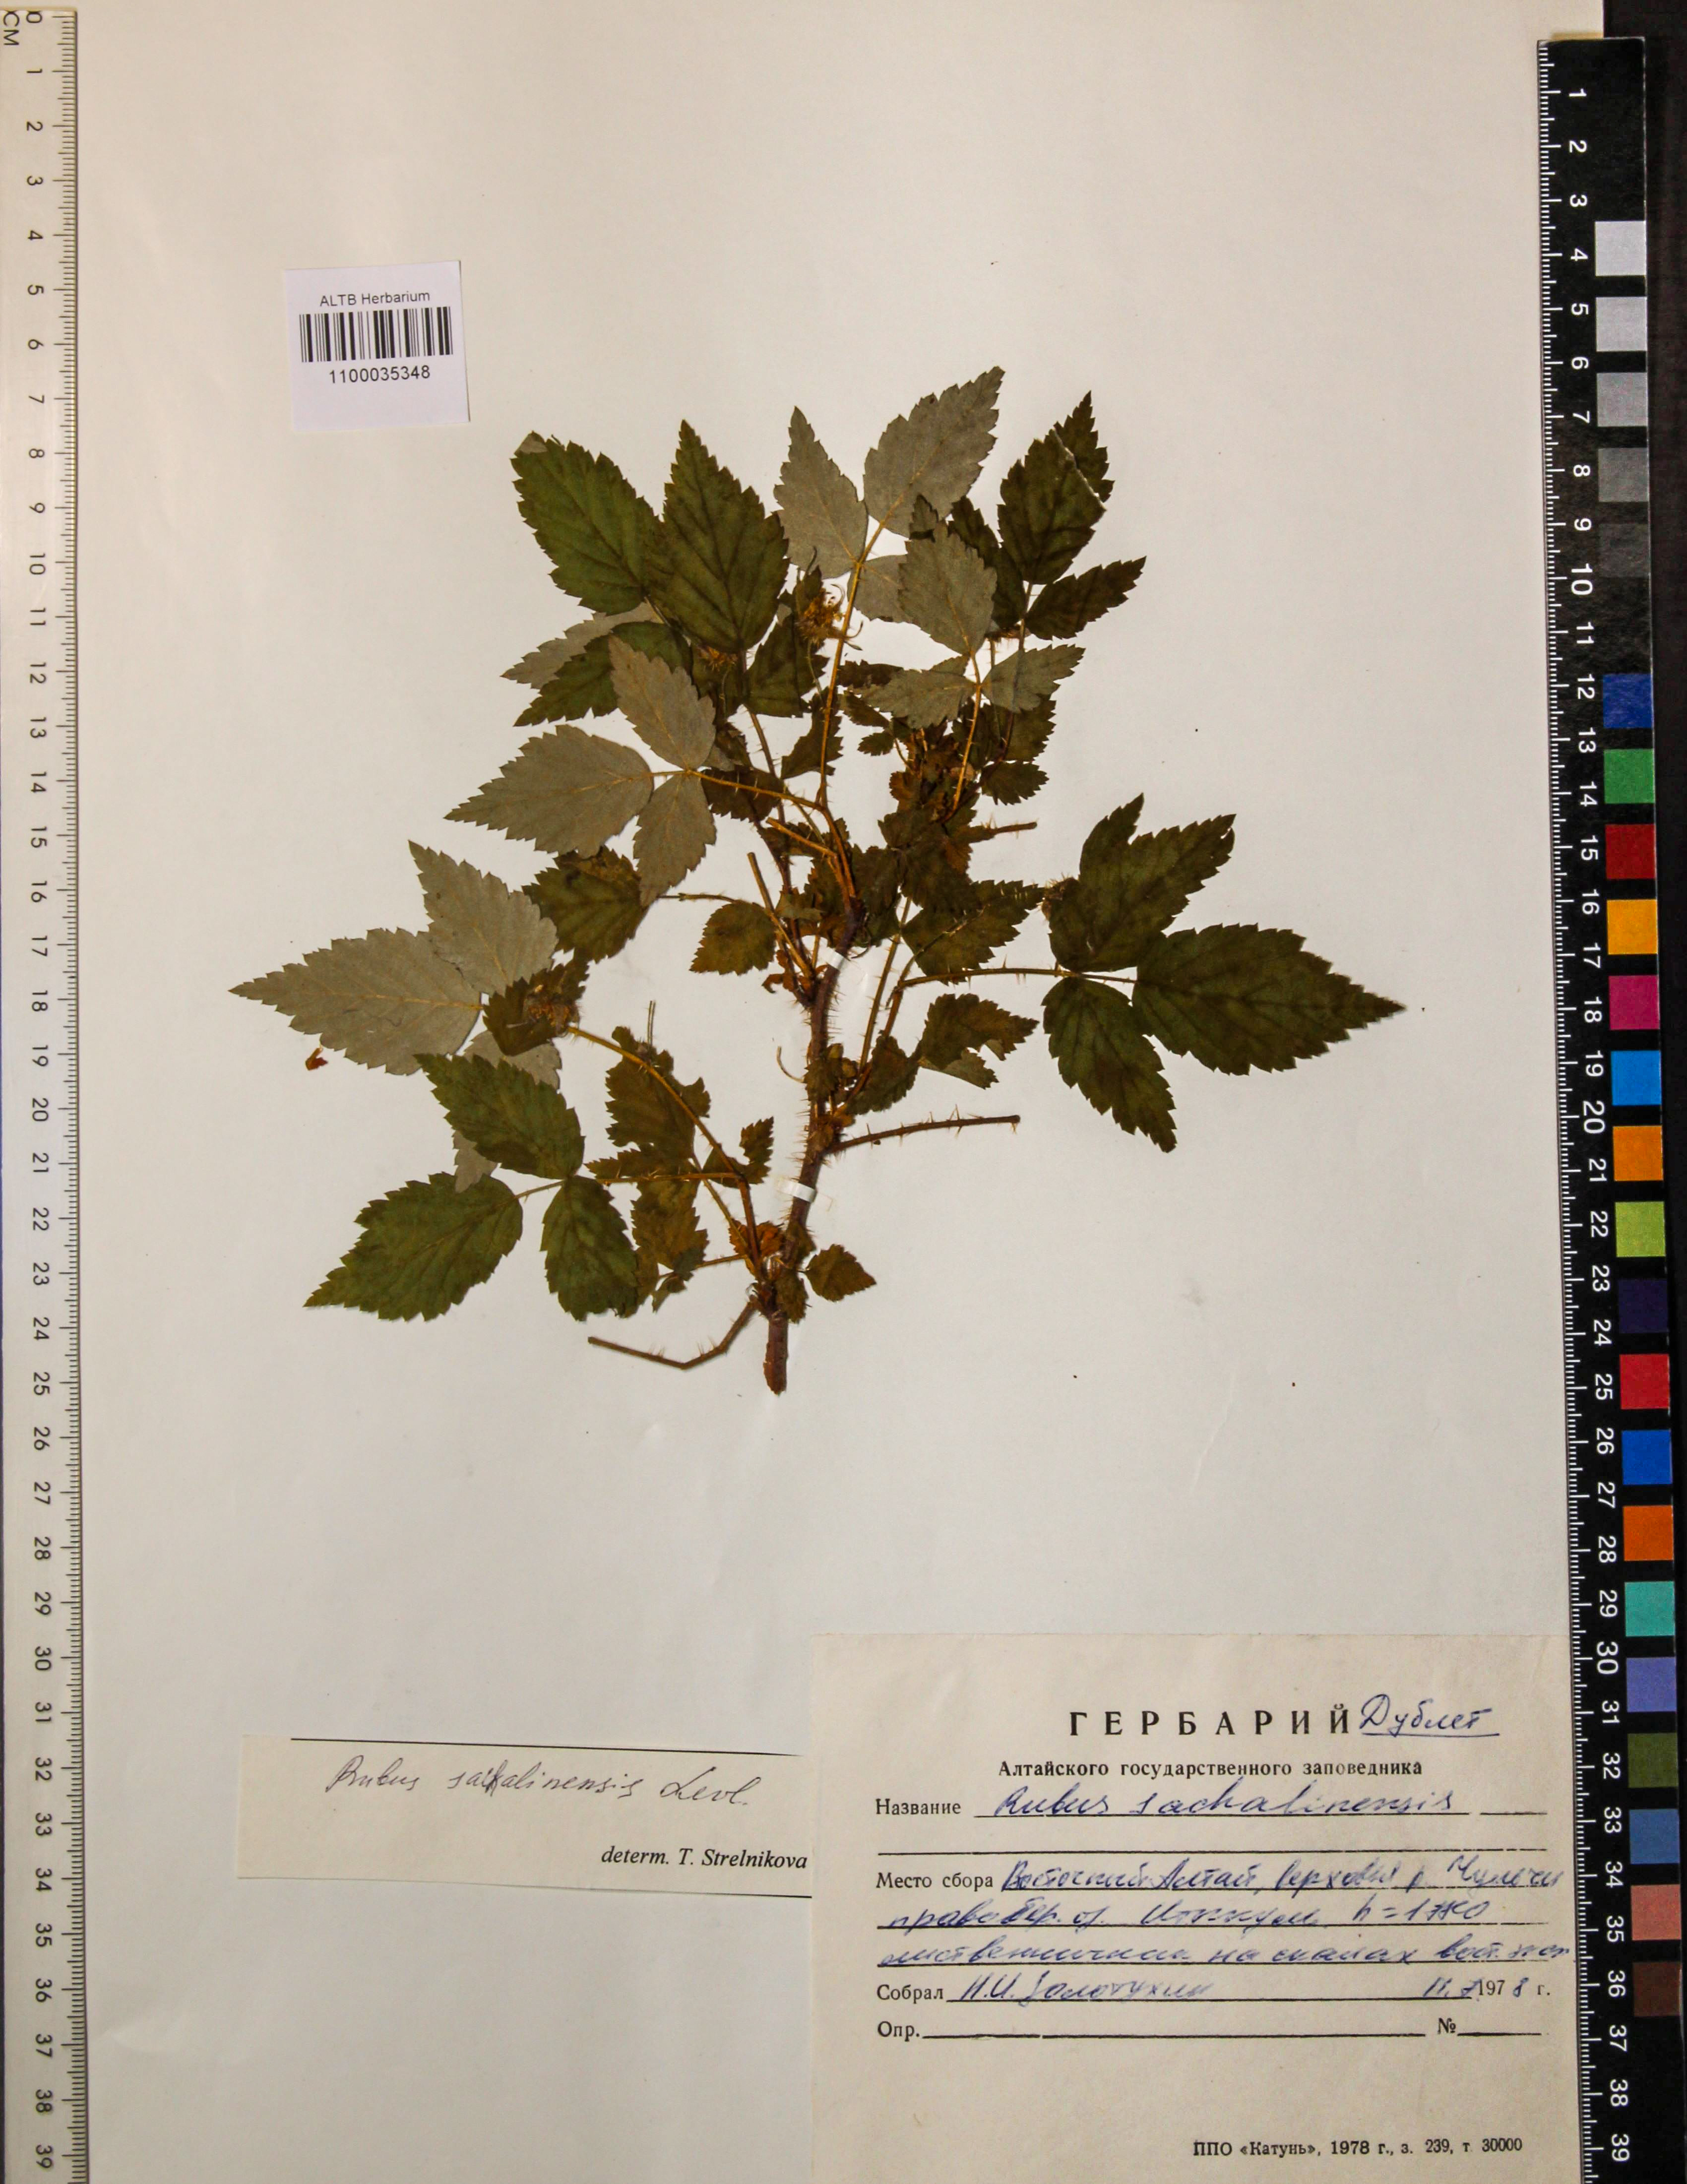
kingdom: Plantae
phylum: Tracheophyta
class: Magnoliopsida
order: Rosales
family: Rosaceae
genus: Rubus
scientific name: Rubus sachalinensis
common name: Red raspberry
